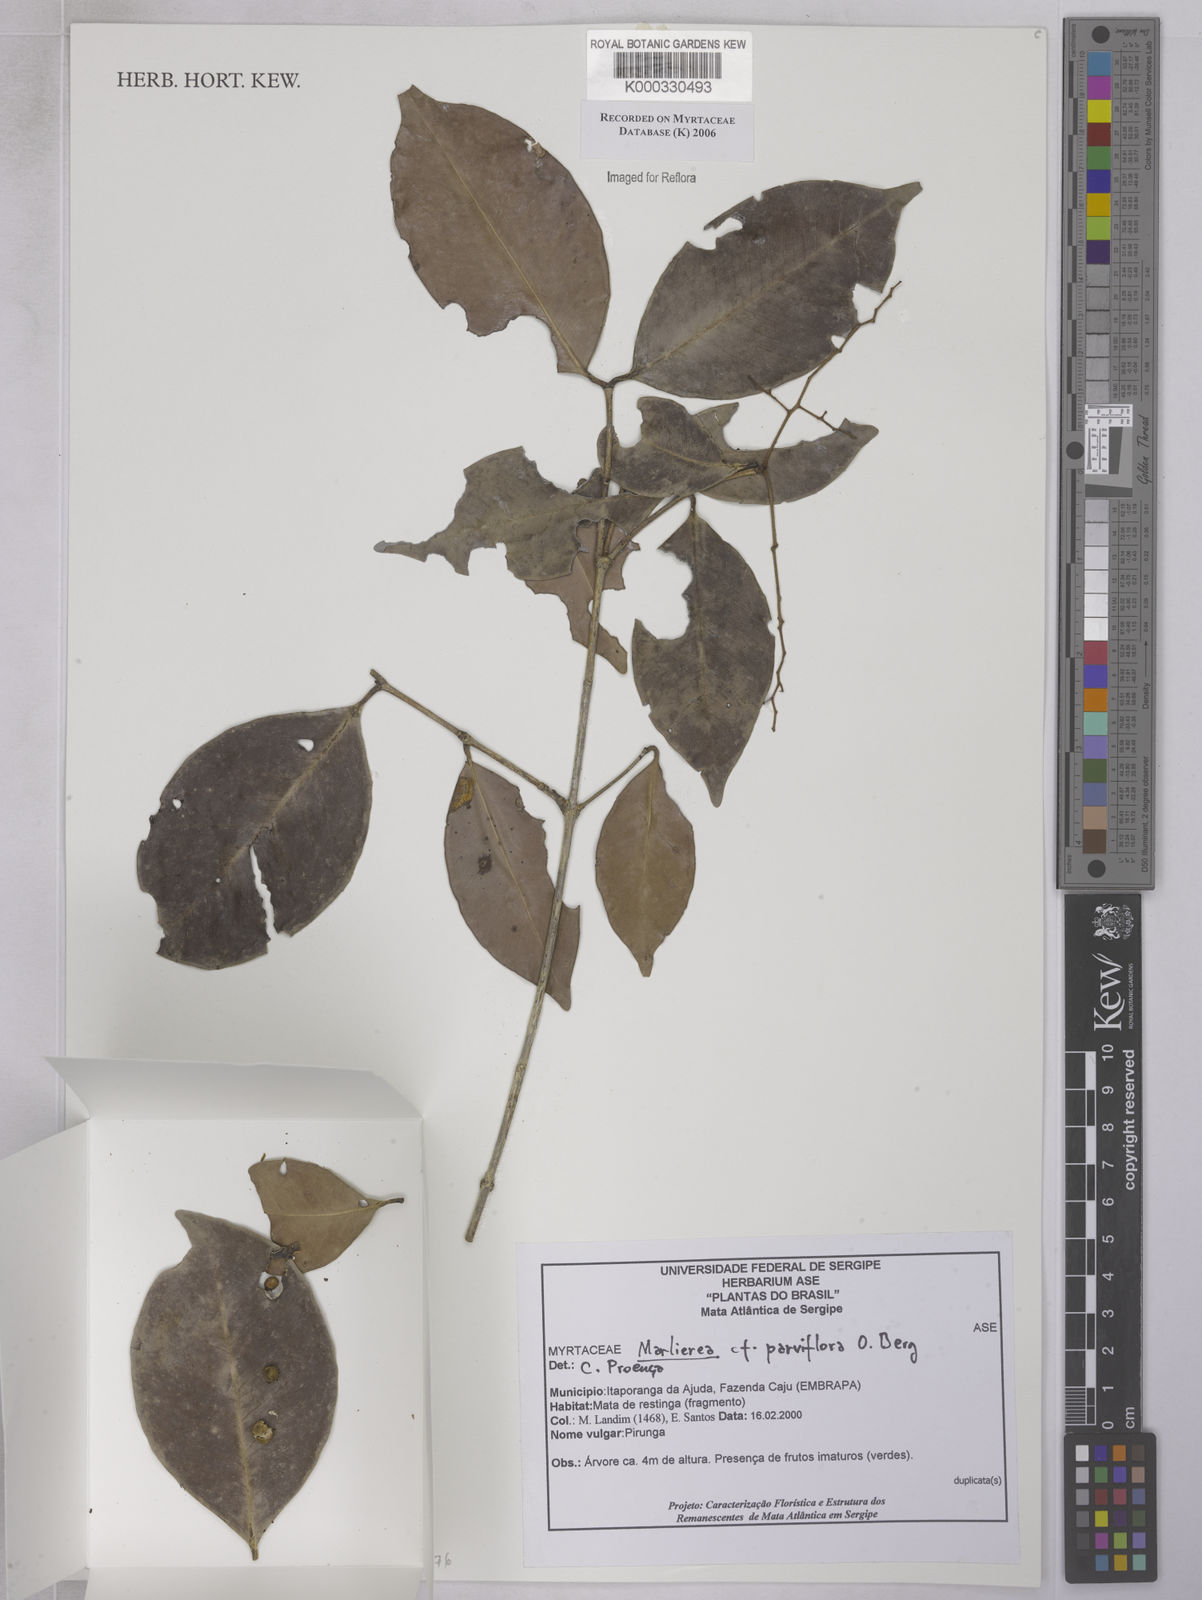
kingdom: Plantae
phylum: Tracheophyta
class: Magnoliopsida
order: Myrtales
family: Myrtaceae
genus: Marlierea
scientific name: Marlierea
